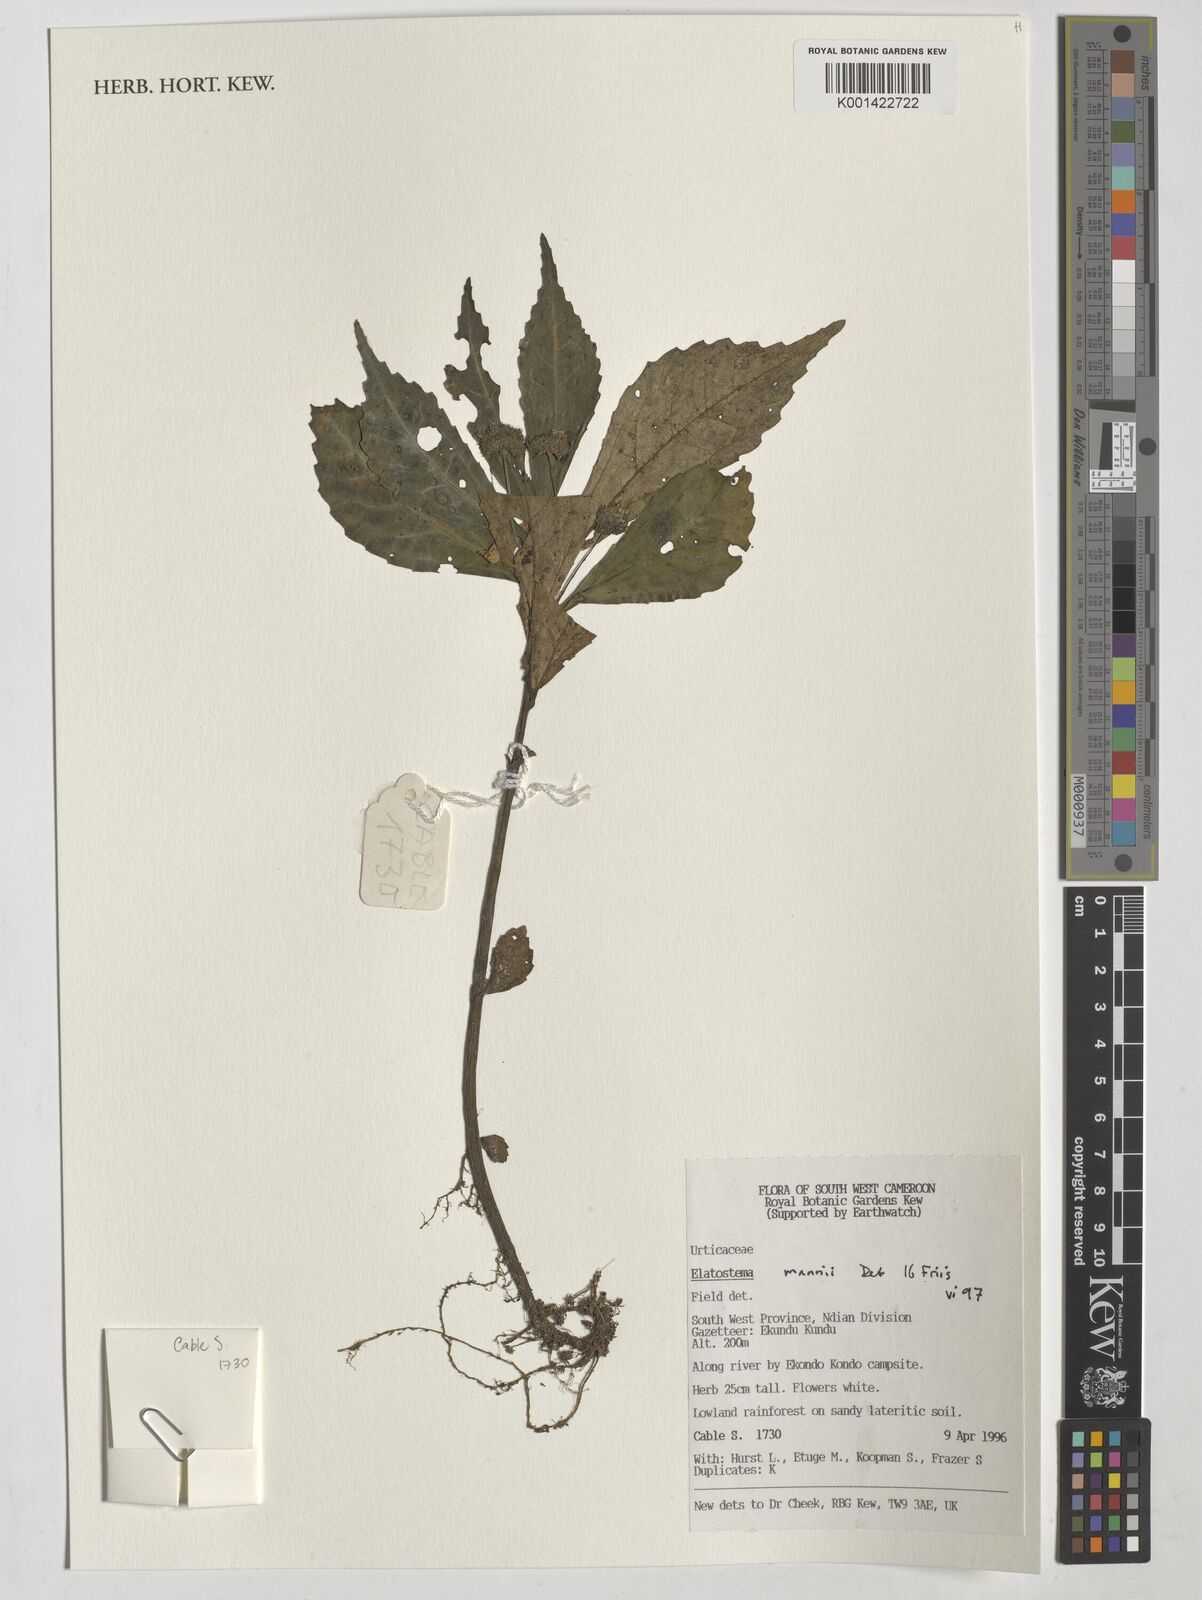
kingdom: Plantae
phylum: Tracheophyta
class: Magnoliopsida
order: Rosales
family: Urticaceae
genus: Elatostema
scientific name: Elatostema mannii
